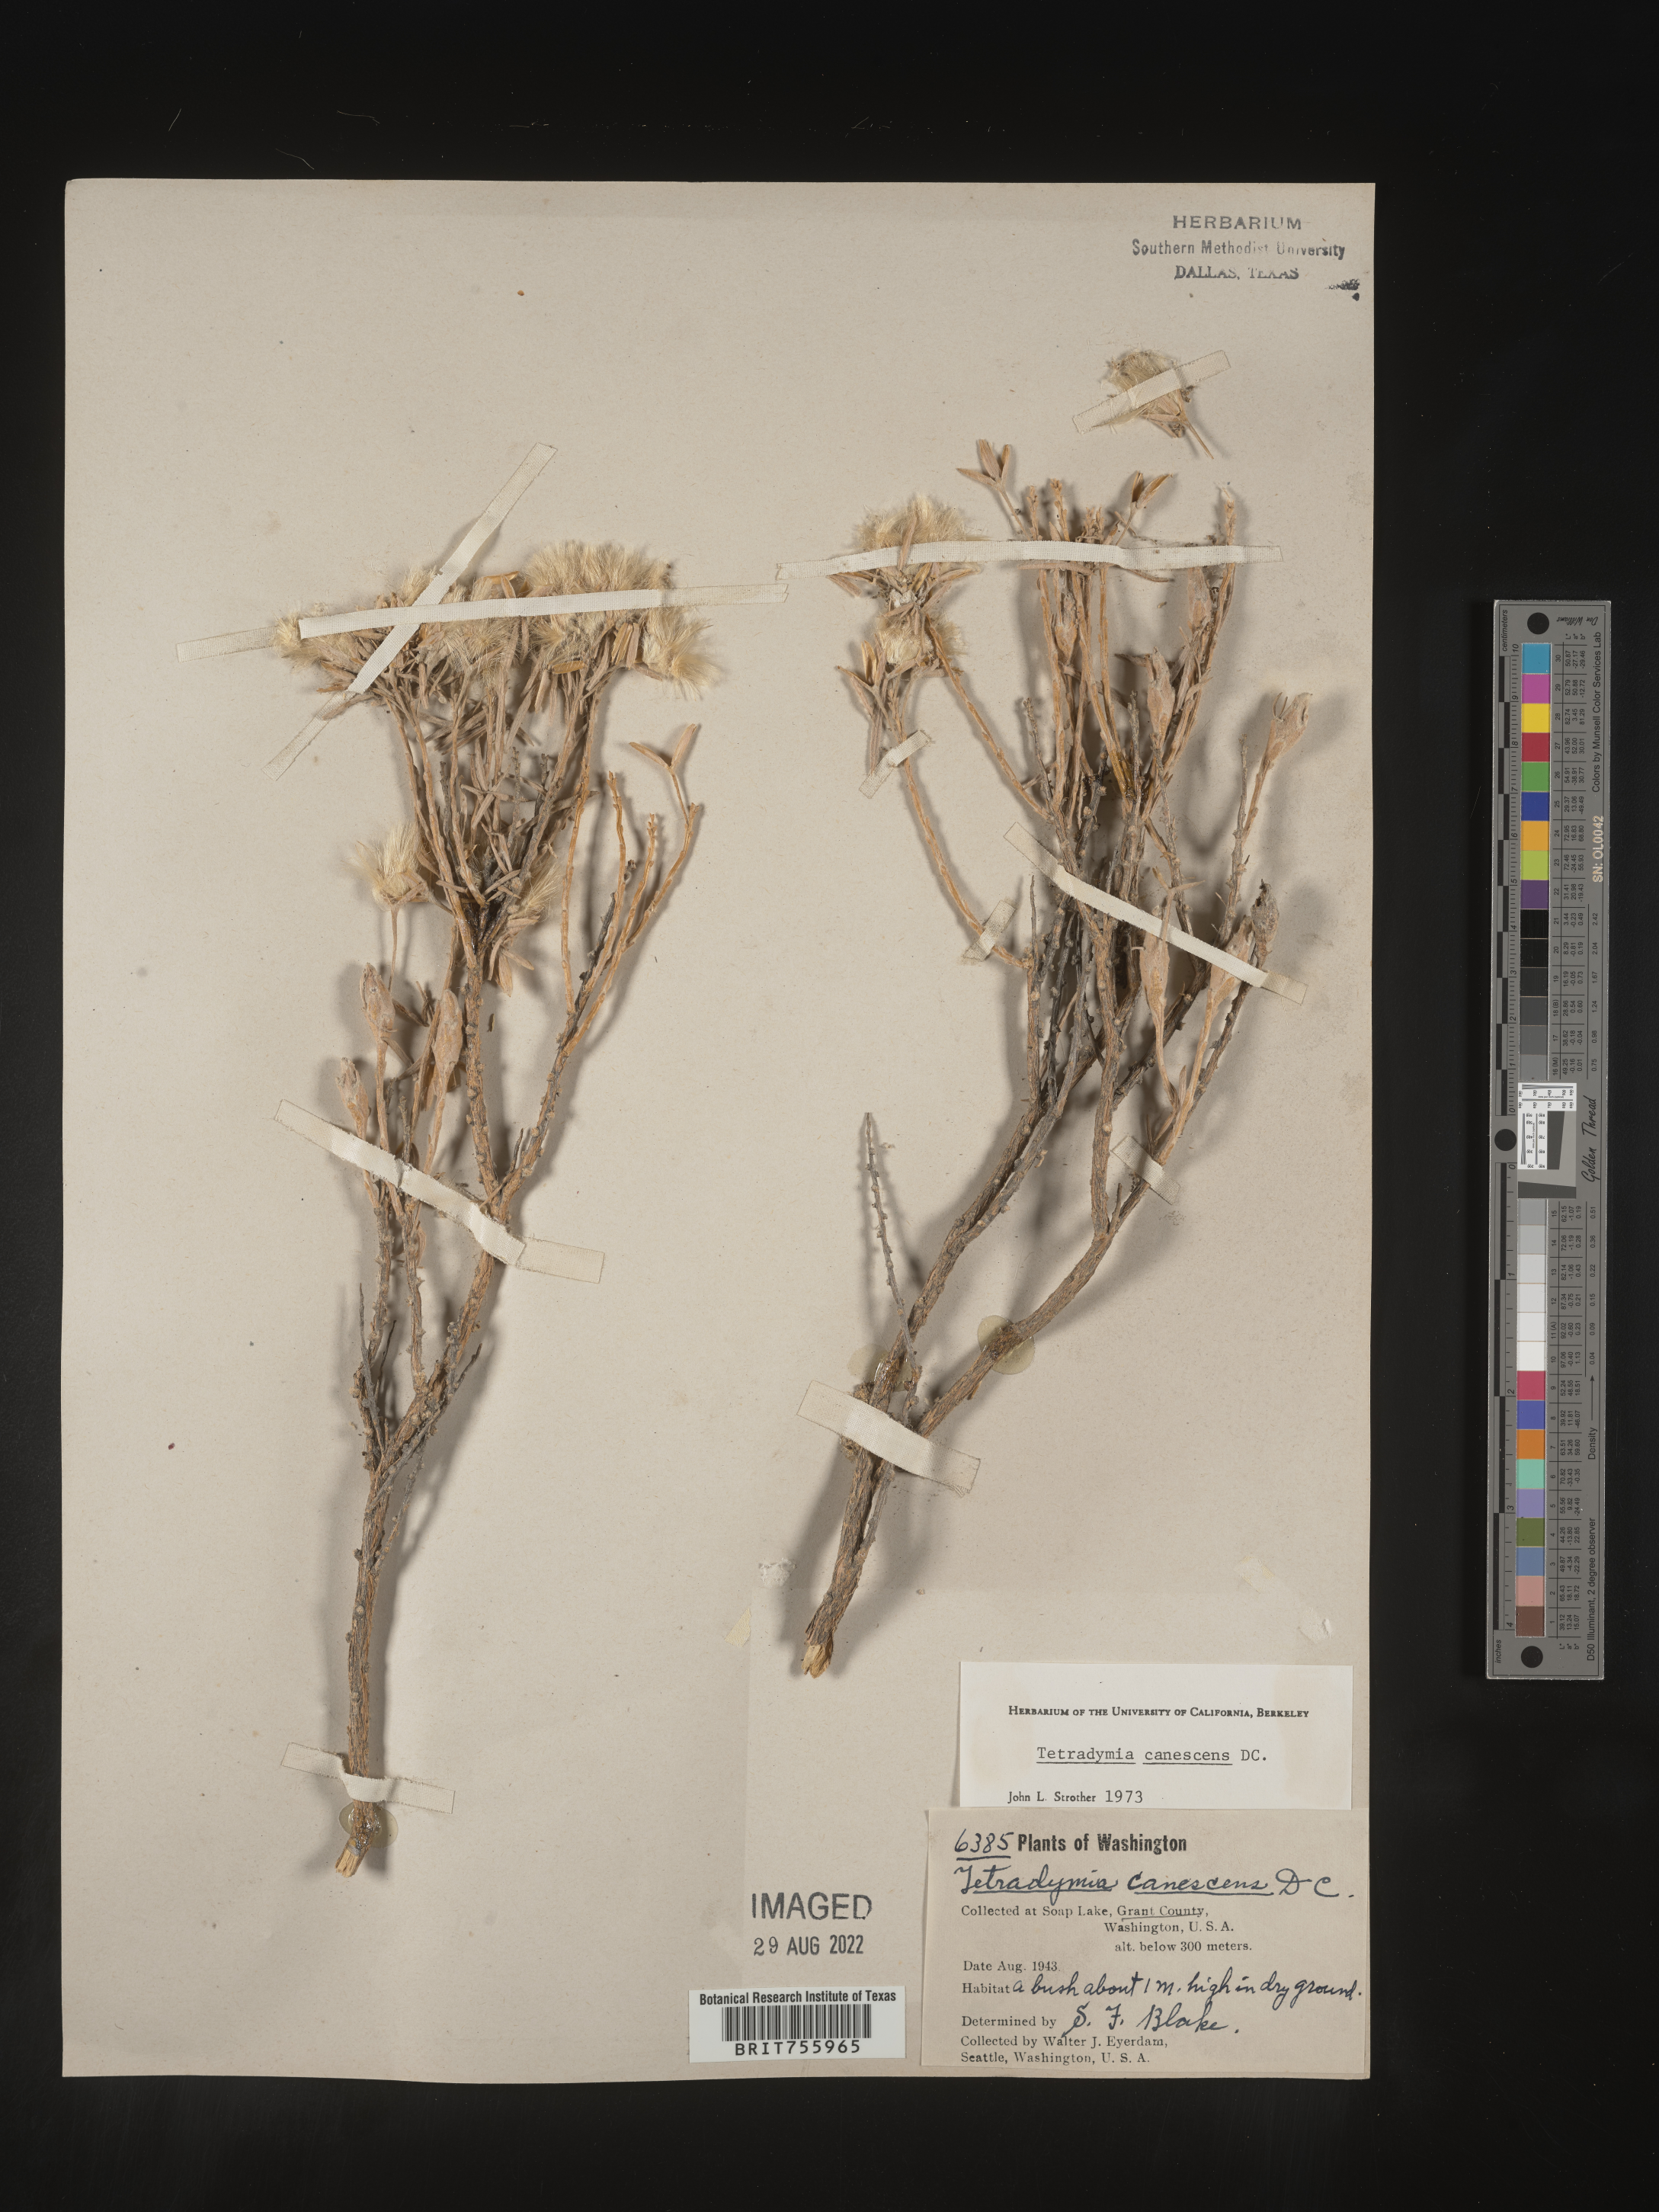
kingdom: Plantae
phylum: Tracheophyta
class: Magnoliopsida
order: Asterales
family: Asteraceae
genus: Tetradymia
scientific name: Tetradymia canescens
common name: Spineless horsebrush
